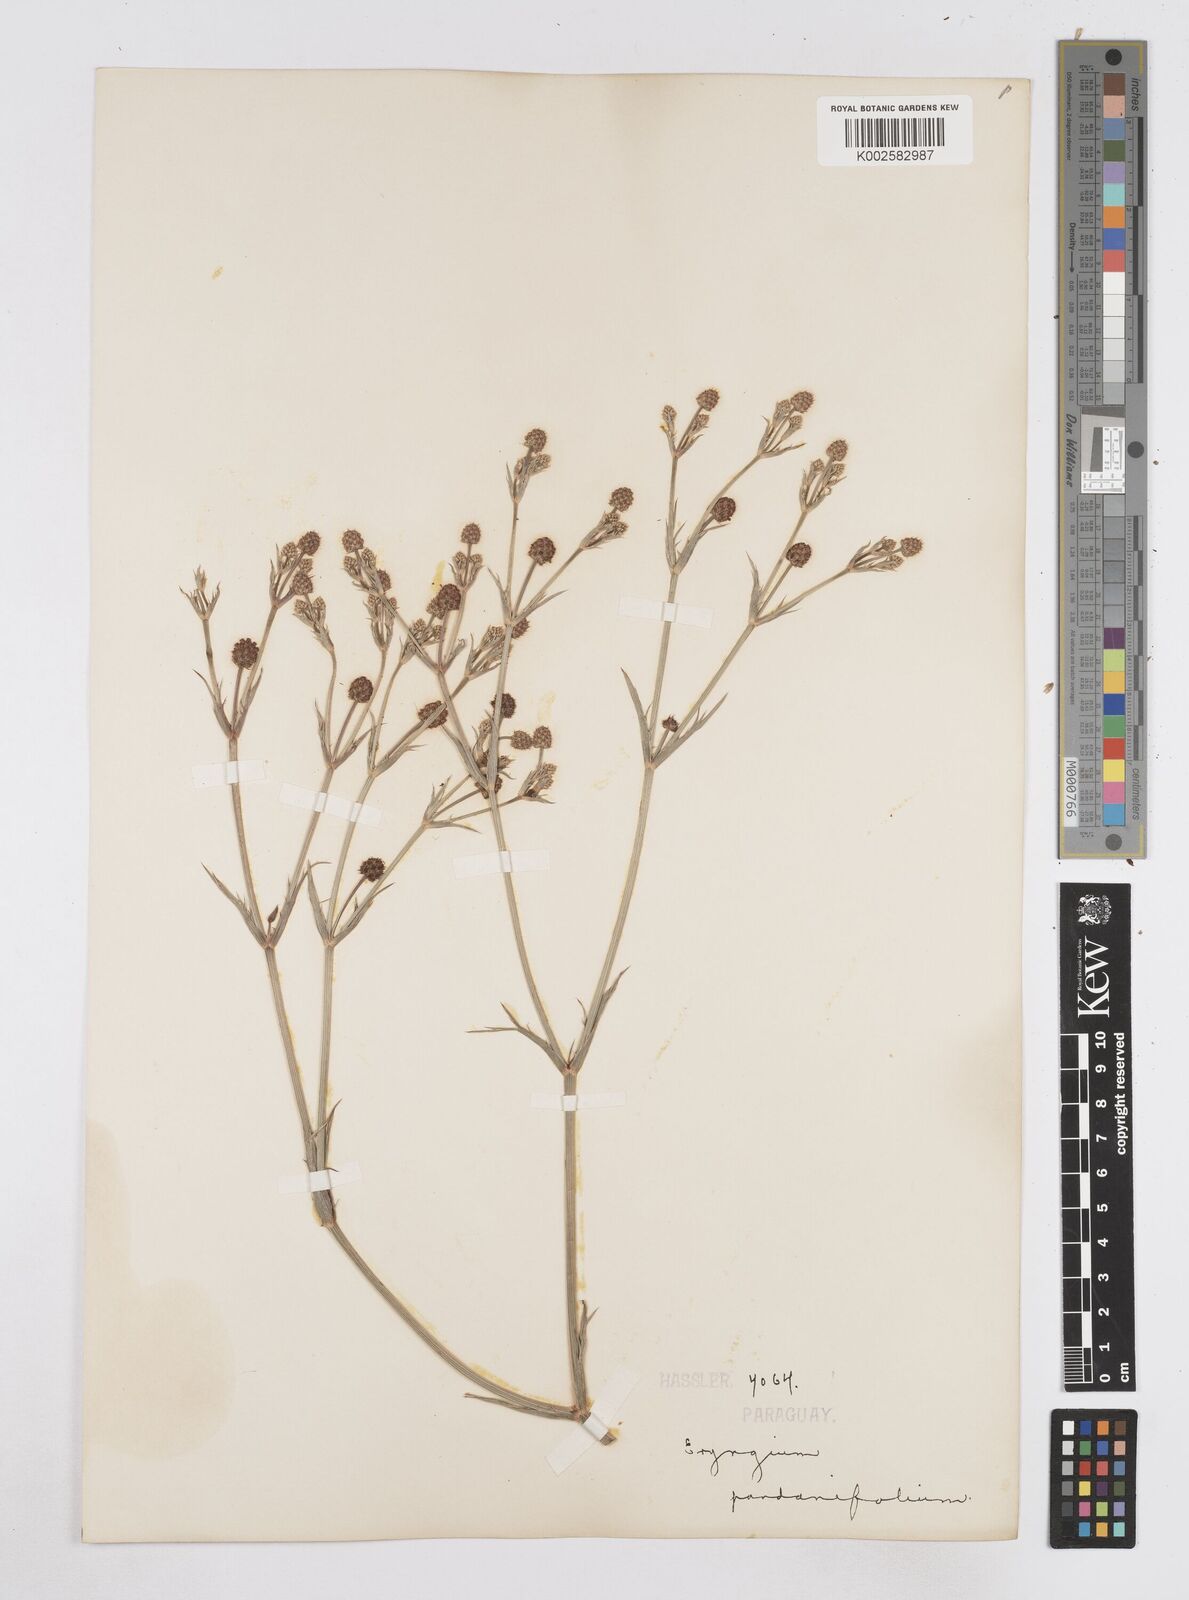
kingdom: Plantae
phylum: Tracheophyta
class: Magnoliopsida
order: Apiales
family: Apiaceae
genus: Eryngium
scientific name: Eryngium pandanifolium
